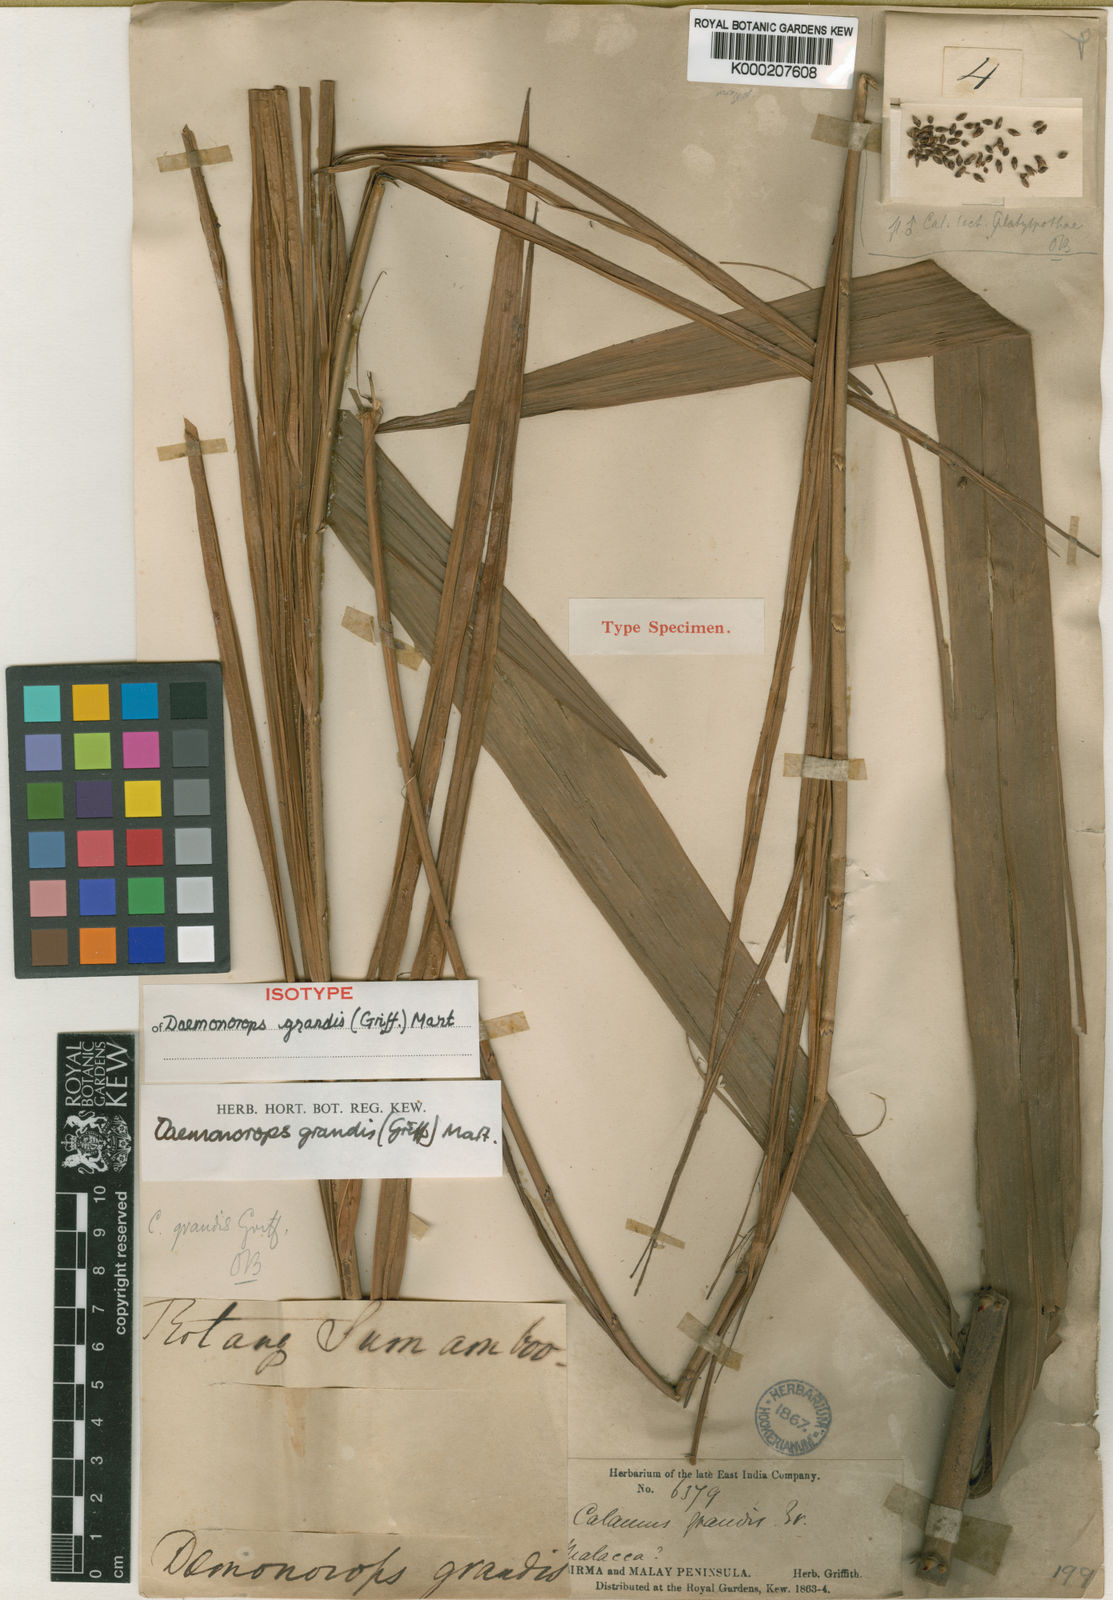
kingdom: Plantae
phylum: Tracheophyta
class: Liliopsida
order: Arecales
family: Arecaceae
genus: Calamus
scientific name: Calamus melanochaetes
